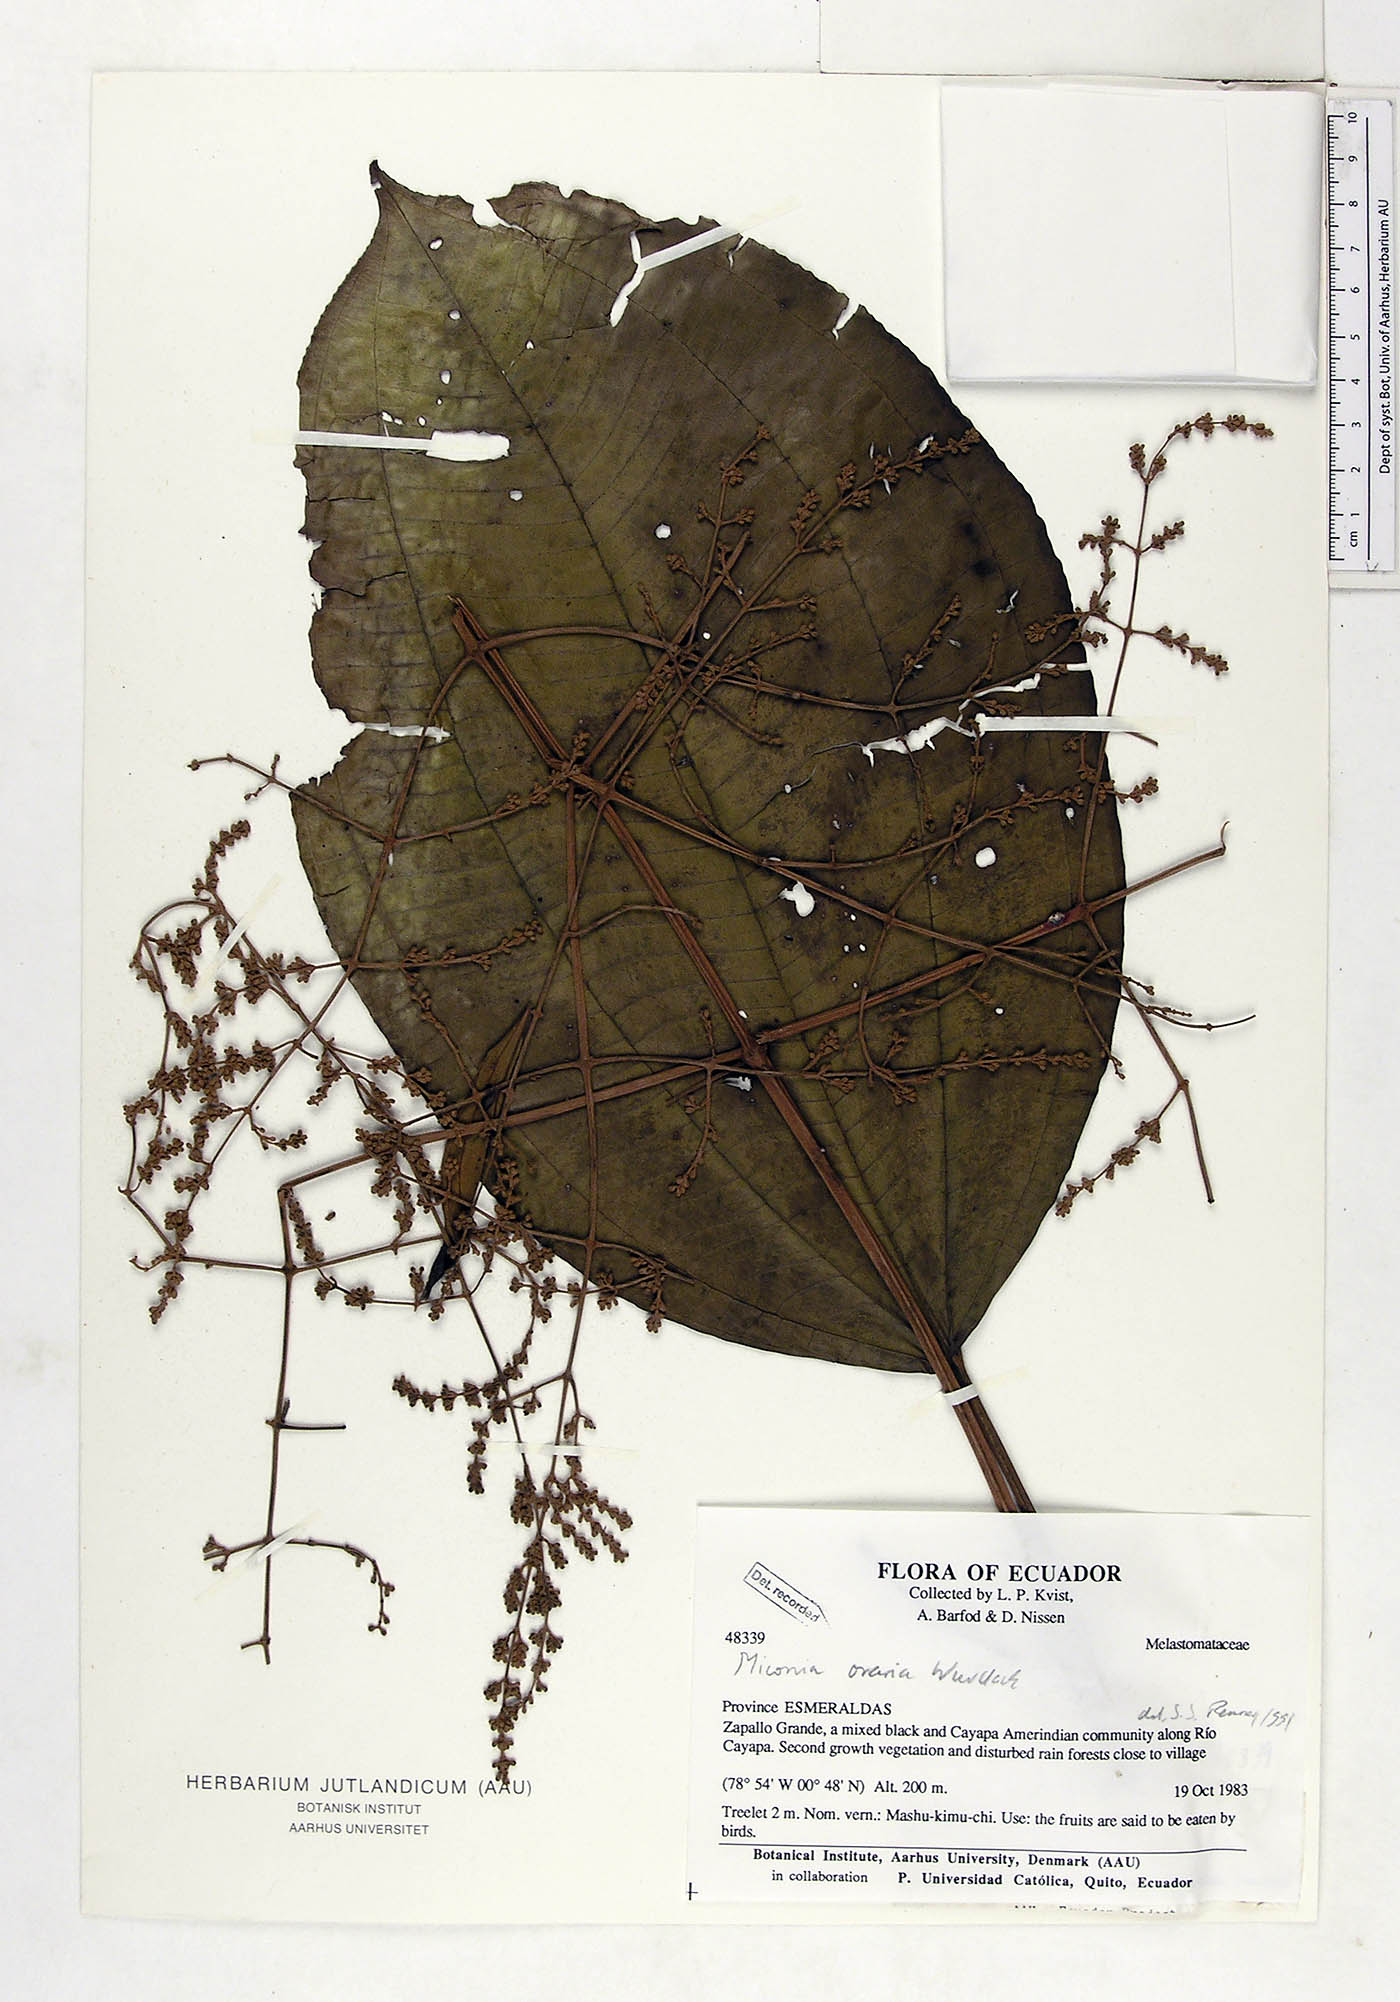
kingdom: Plantae
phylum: Tracheophyta
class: Magnoliopsida
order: Myrtales
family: Melastomataceae
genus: Miconia
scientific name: Miconia oraria
